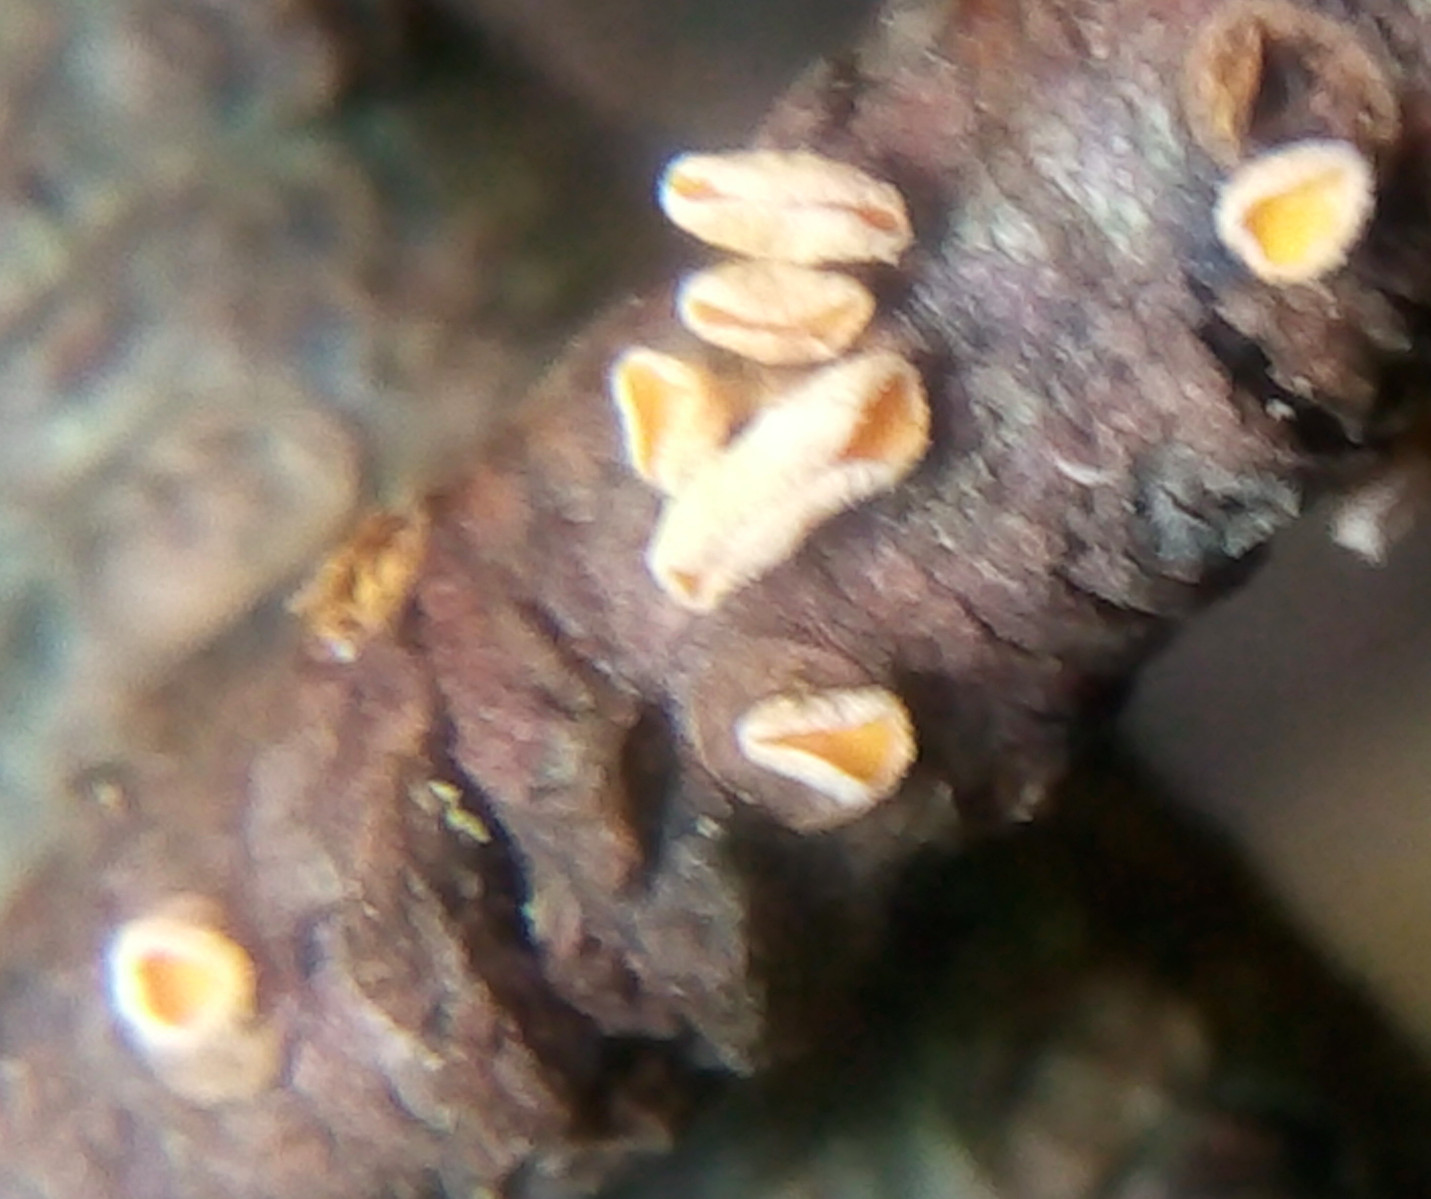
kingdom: Fungi
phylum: Ascomycota
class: Leotiomycetes
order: Helotiales
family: Lachnaceae
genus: Lachnellula
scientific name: Lachnellula subtilissima
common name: gran-frynseskive
